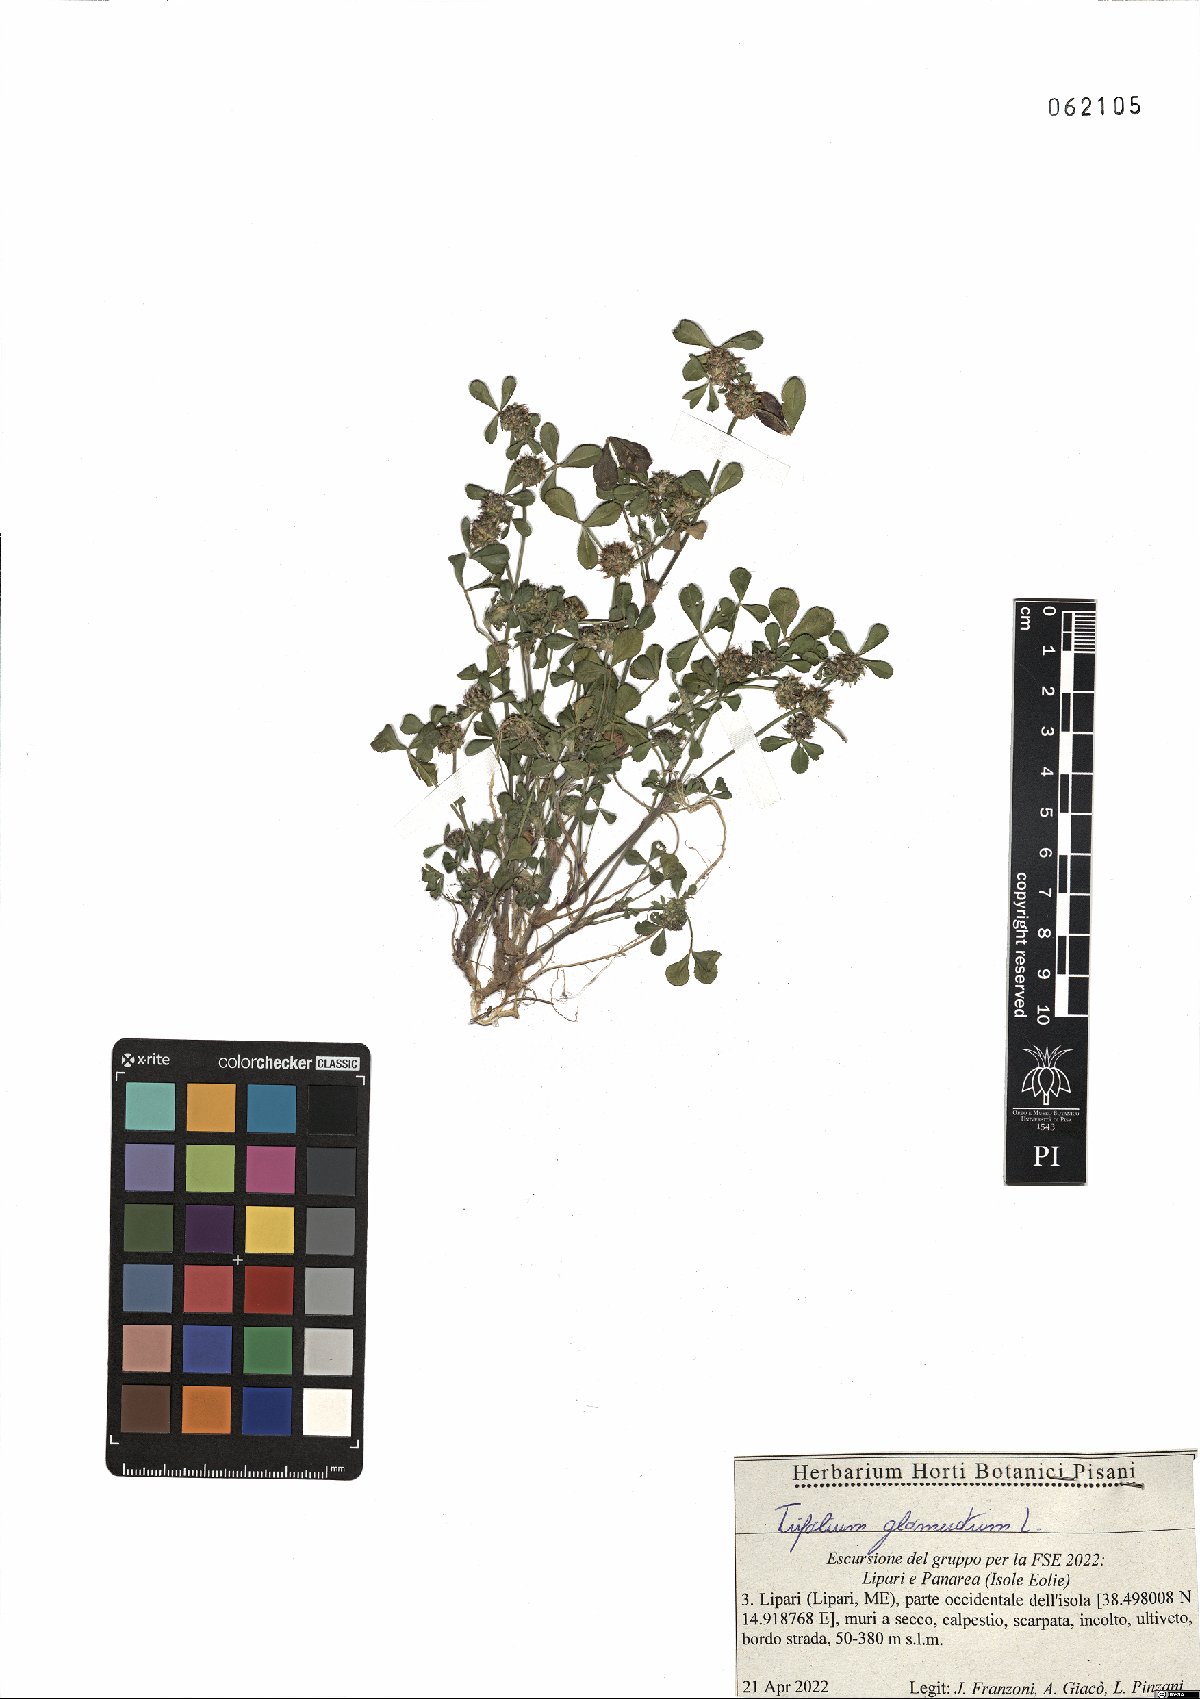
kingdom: Plantae
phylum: Tracheophyta
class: Magnoliopsida
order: Fabales
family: Fabaceae
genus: Trifolium
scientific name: Trifolium glomeratum
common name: Clustered clover
